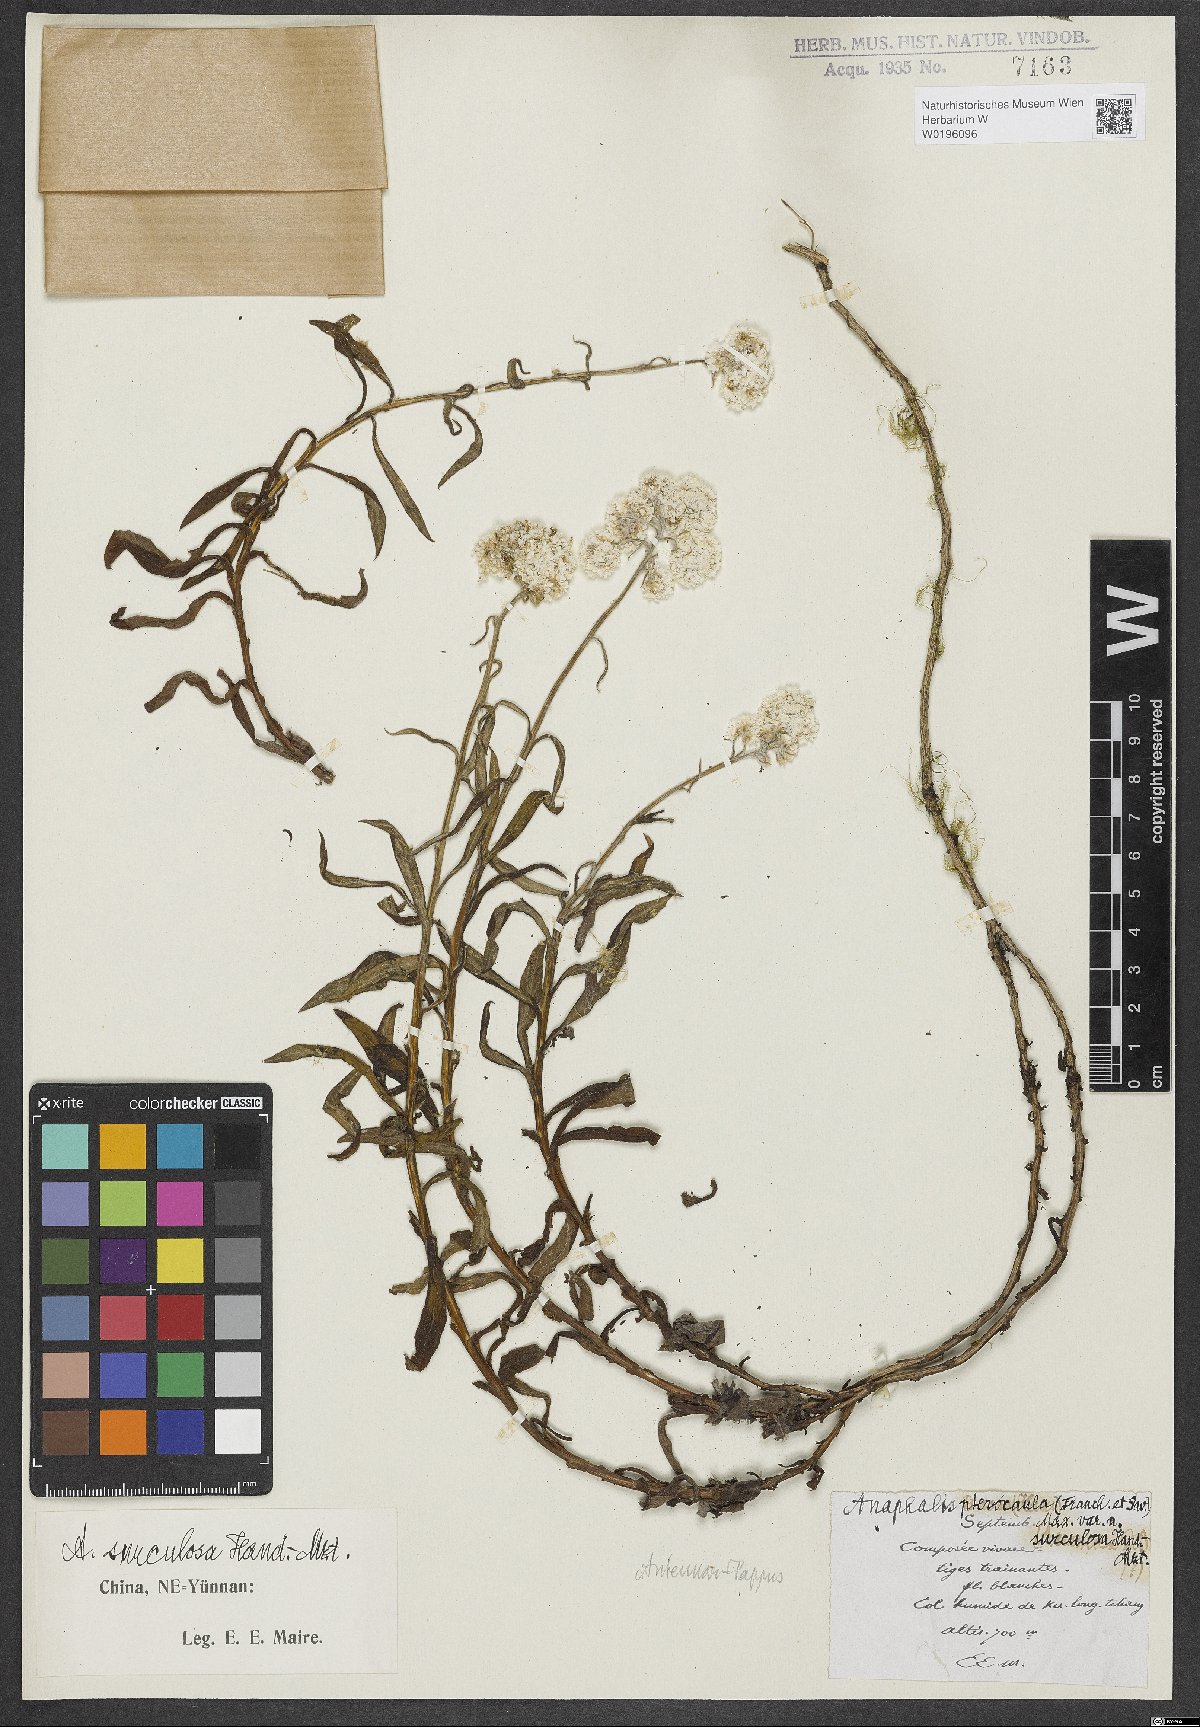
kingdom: Plantae
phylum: Tracheophyta
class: Magnoliopsida
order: Asterales
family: Asteraceae
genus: Anaphalis
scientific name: Anaphalis surculosa
